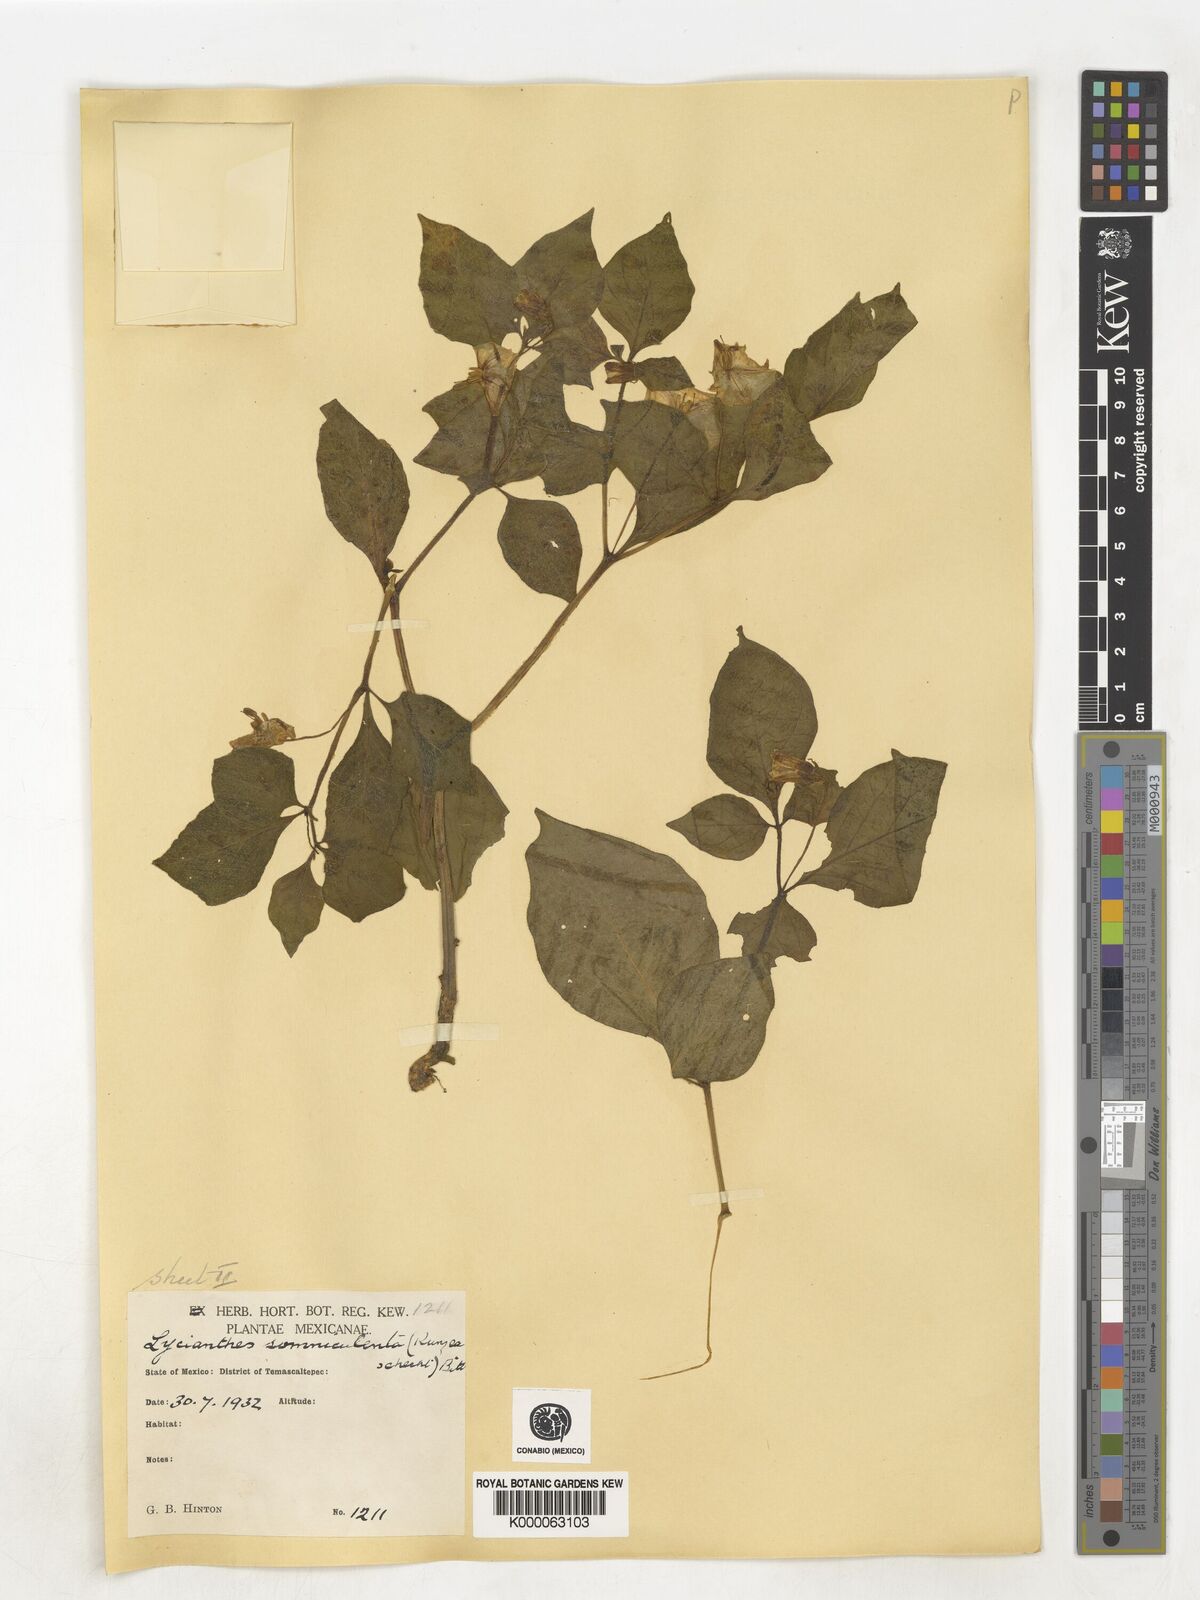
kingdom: Plantae
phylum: Tracheophyta
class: Magnoliopsida
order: Solanales
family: Solanaceae
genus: Lycianthes
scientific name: Lycianthes ciliolata
